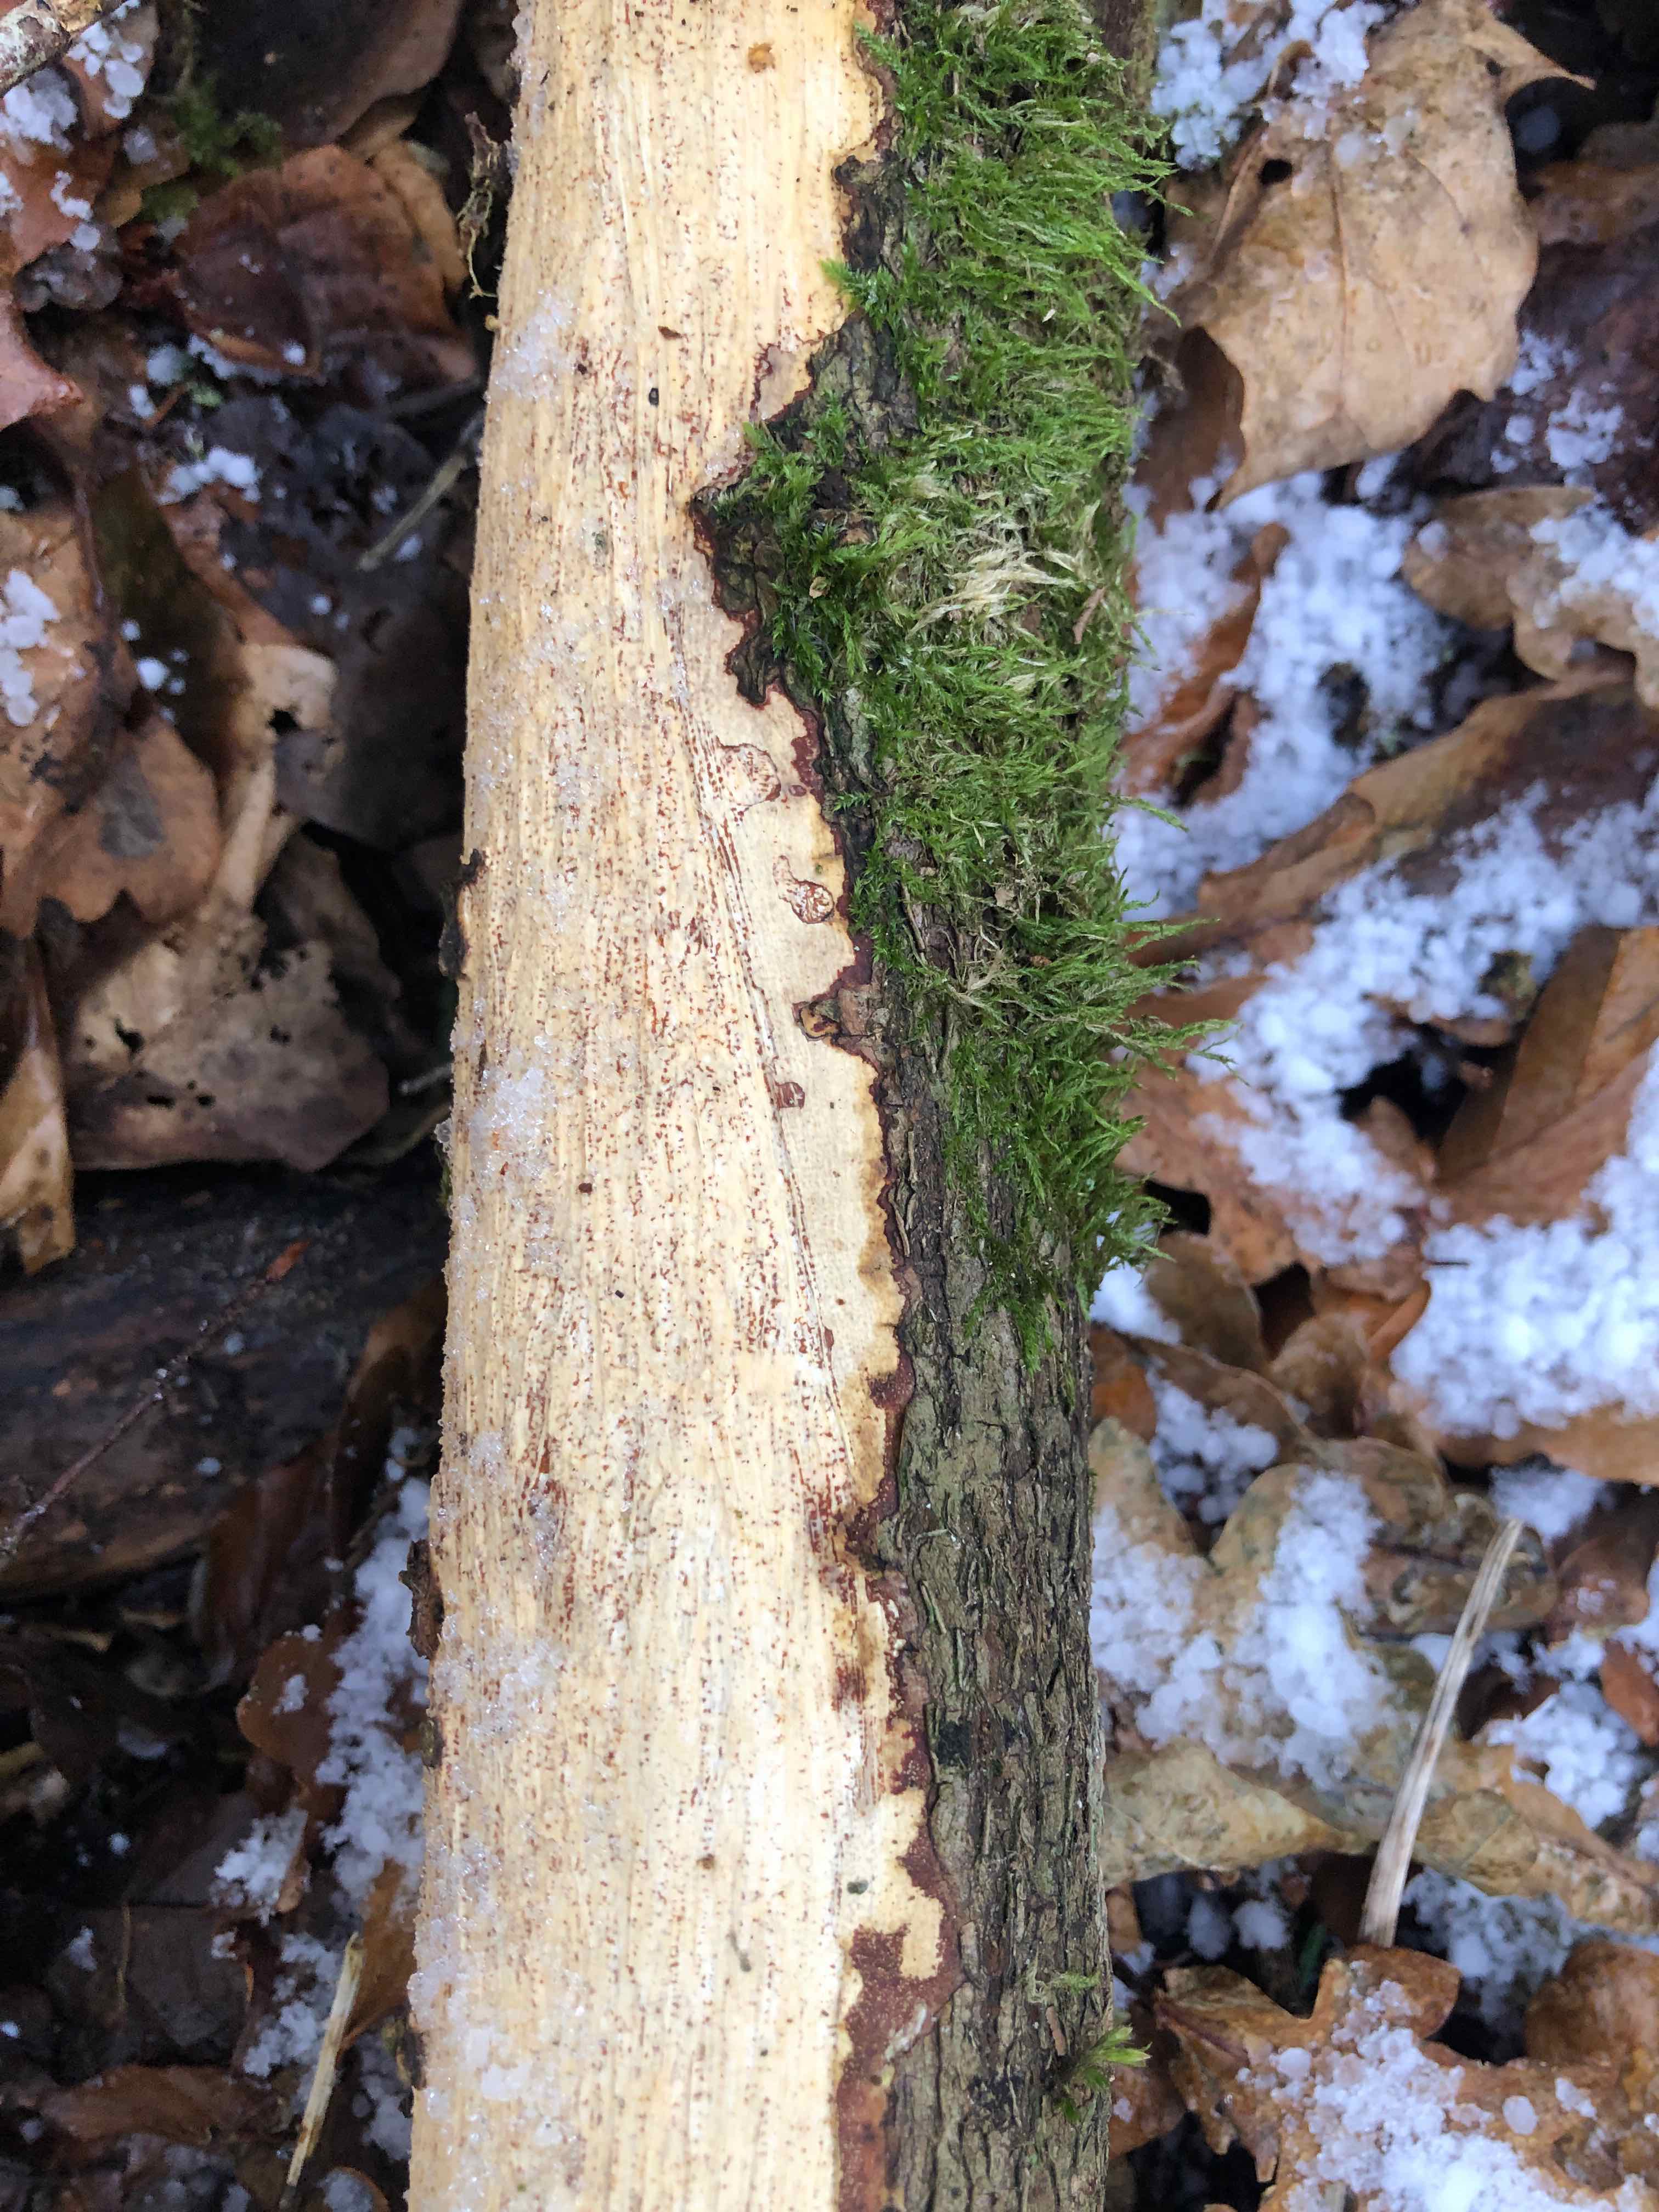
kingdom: Fungi
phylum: Basidiomycota
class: Agaricomycetes
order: Corticiales
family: Vuilleminiaceae
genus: Vuilleminia
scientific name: Vuilleminia comedens
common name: almindelig barksprænger
